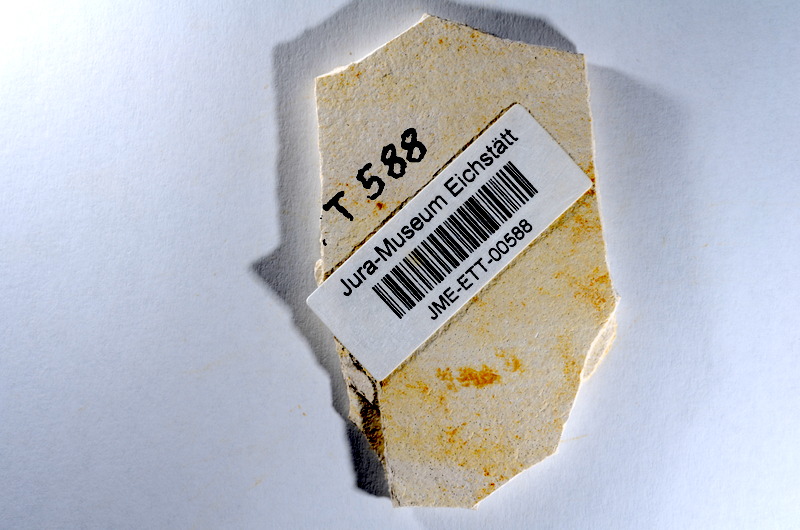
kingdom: Animalia
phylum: Chordata
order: Salmoniformes
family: Orthogonikleithridae
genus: Orthogonikleithrus
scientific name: Orthogonikleithrus hoelli
